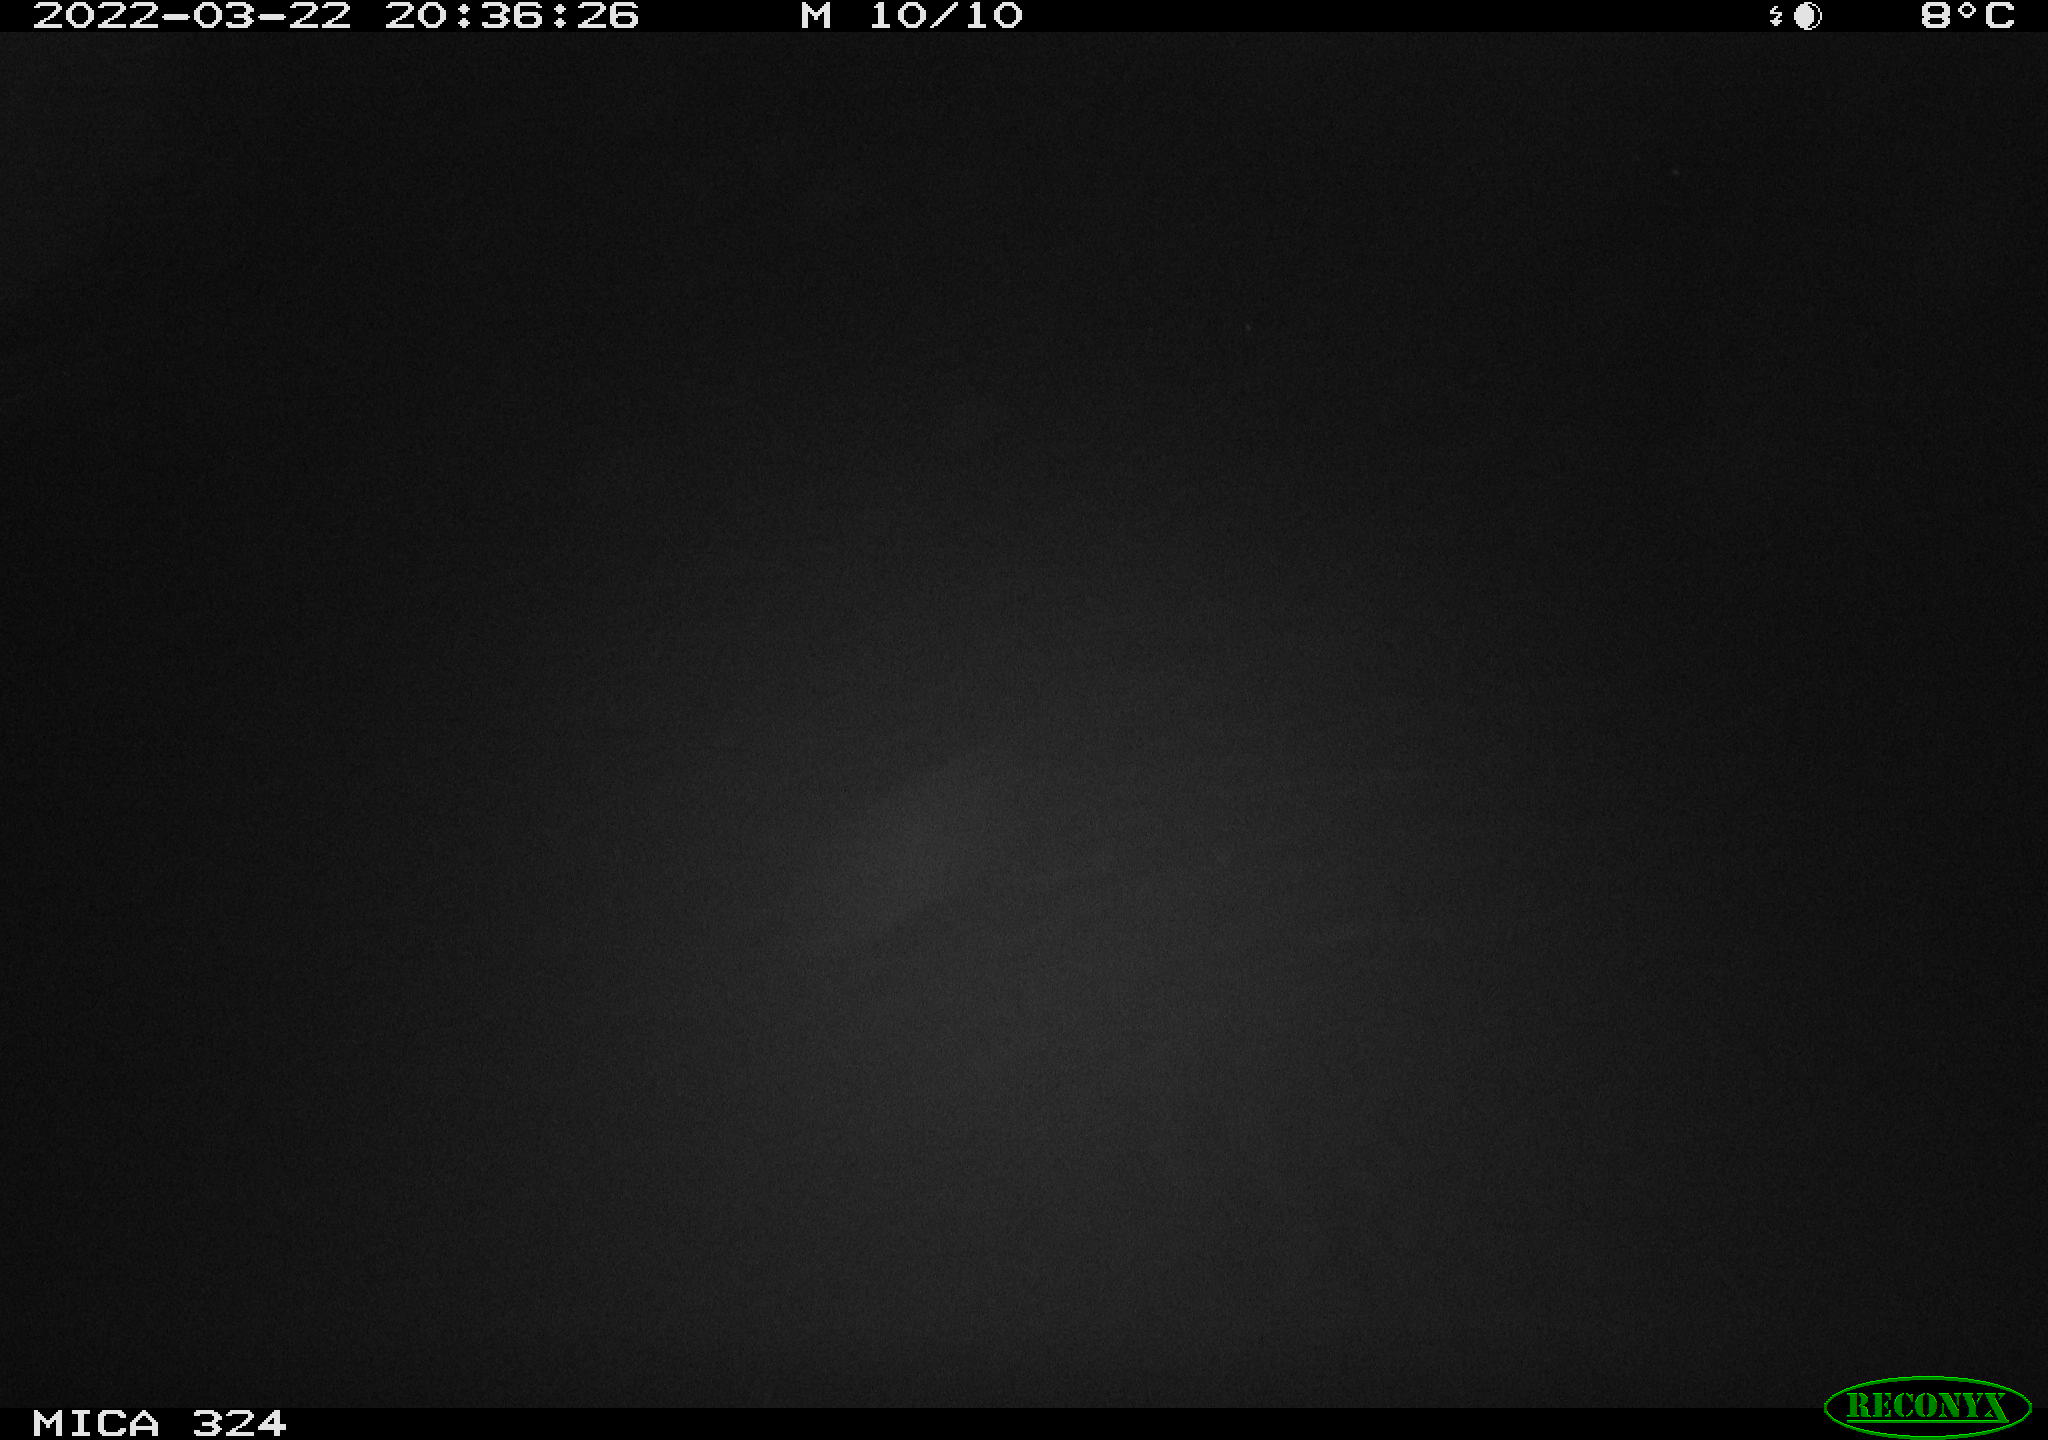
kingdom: Animalia
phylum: Chordata
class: Mammalia
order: Rodentia
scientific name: Rodentia
